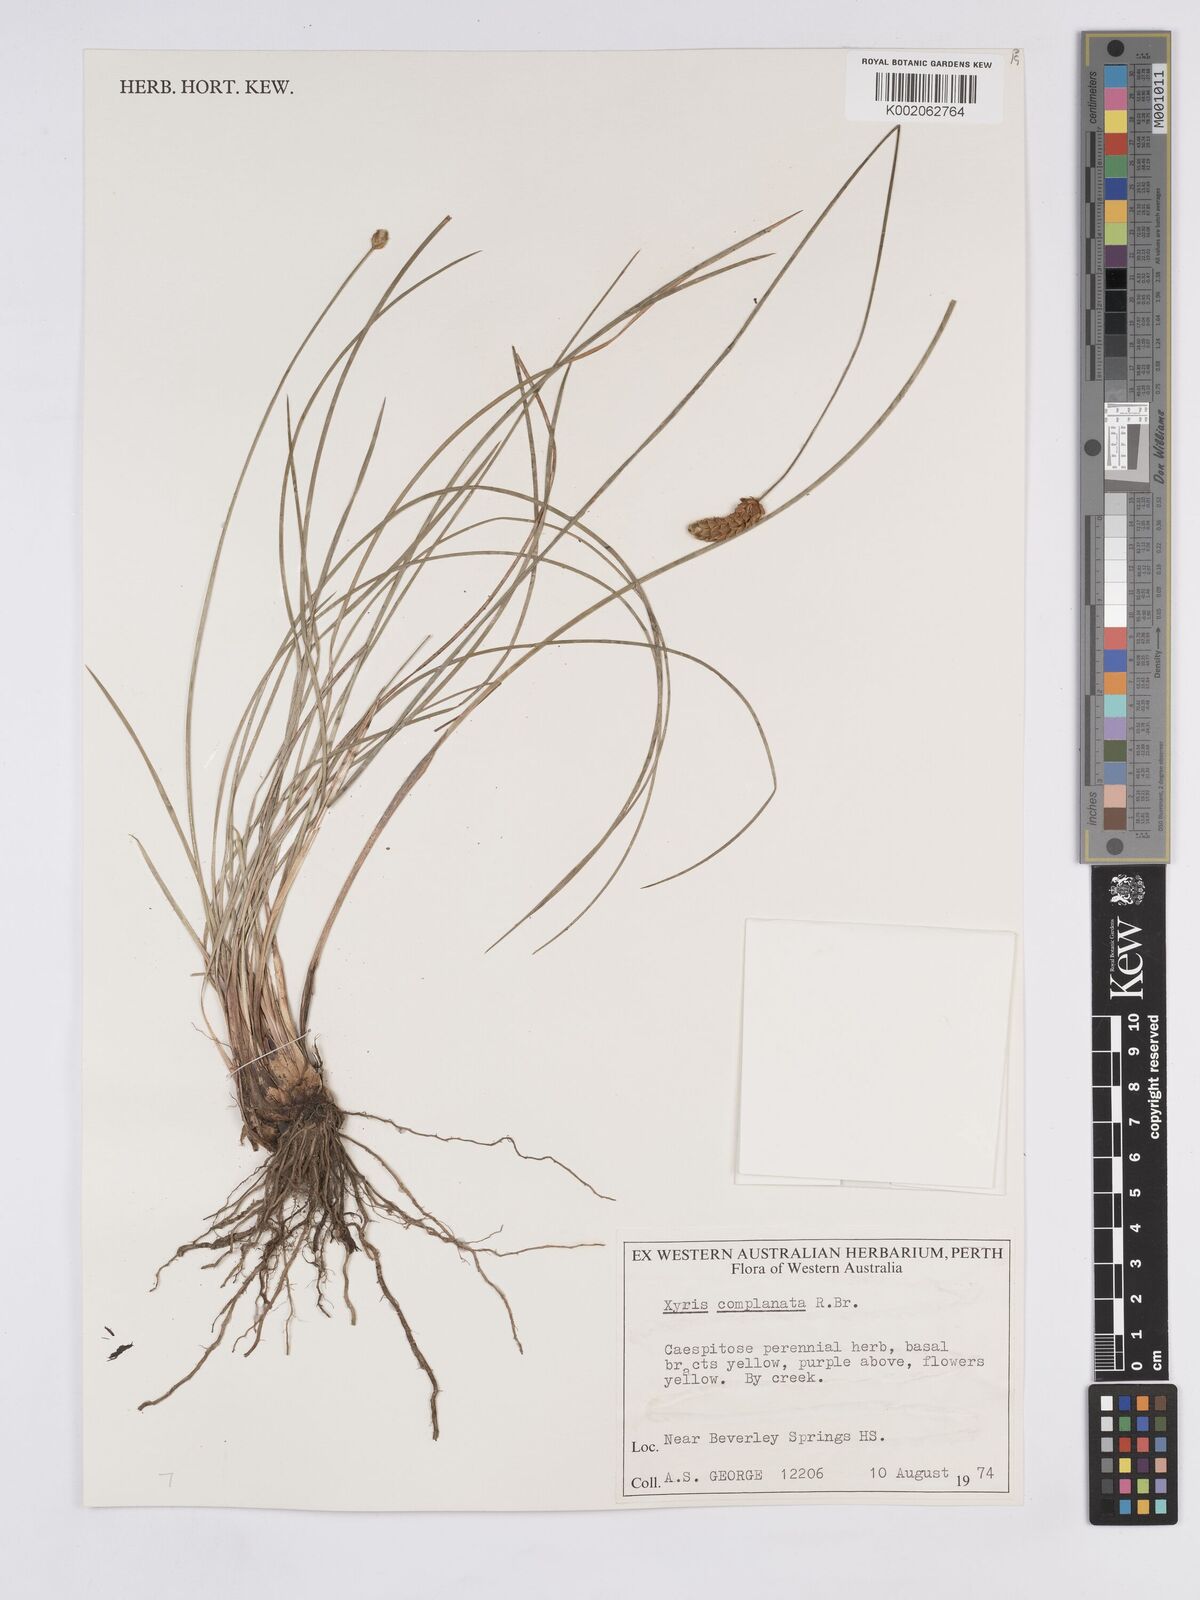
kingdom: Plantae
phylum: Tracheophyta
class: Liliopsida
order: Poales
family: Xyridaceae
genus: Xyris
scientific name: Xyris complanata
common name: Hawai'i yelloweyed grass
